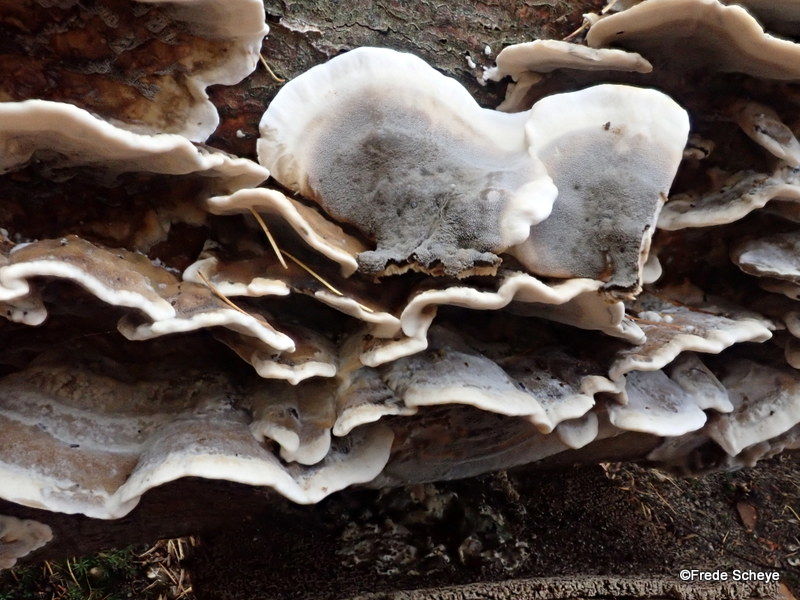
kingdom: Fungi
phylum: Basidiomycota
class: Agaricomycetes
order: Polyporales
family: Phanerochaetaceae
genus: Bjerkandera
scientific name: Bjerkandera adusta
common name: sveden sodporesvamp
